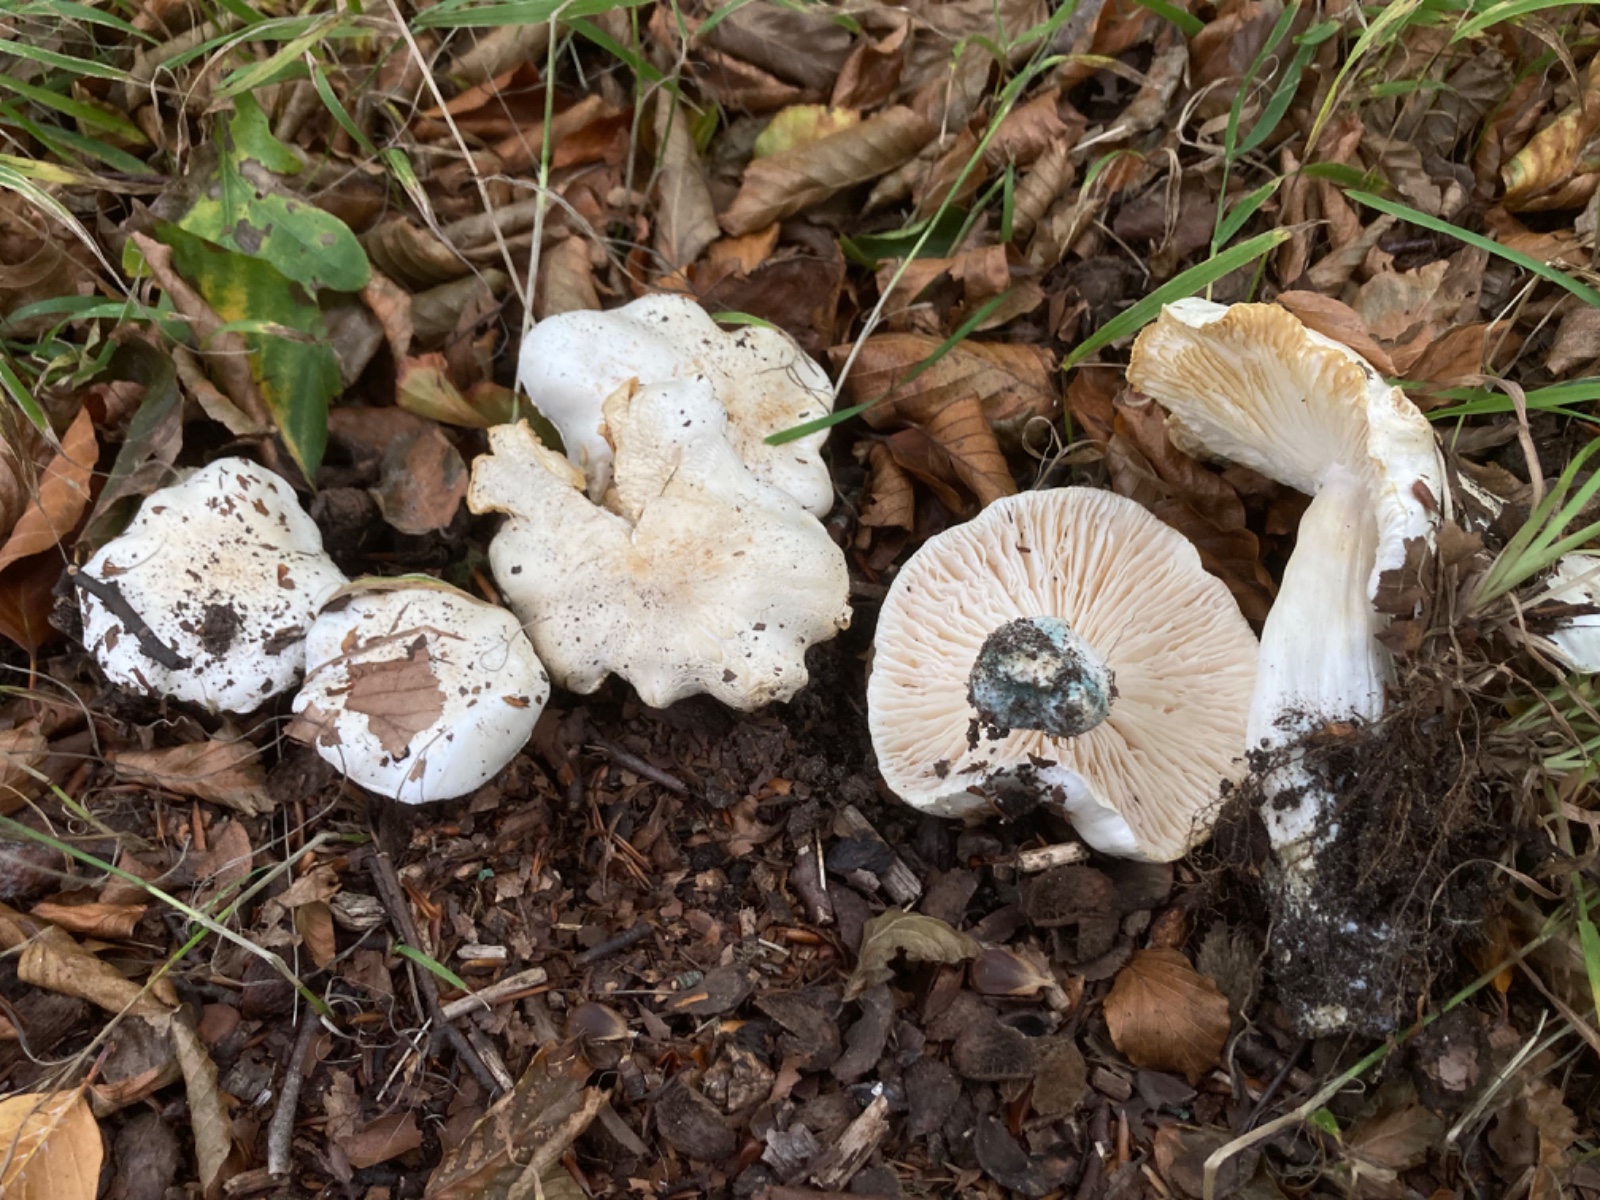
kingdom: Fungi
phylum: Basidiomycota
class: Agaricomycetes
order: Agaricales
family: Tricholomataceae
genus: Tricholoma
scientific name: Tricholoma columbetta
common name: silke-ridderhat
